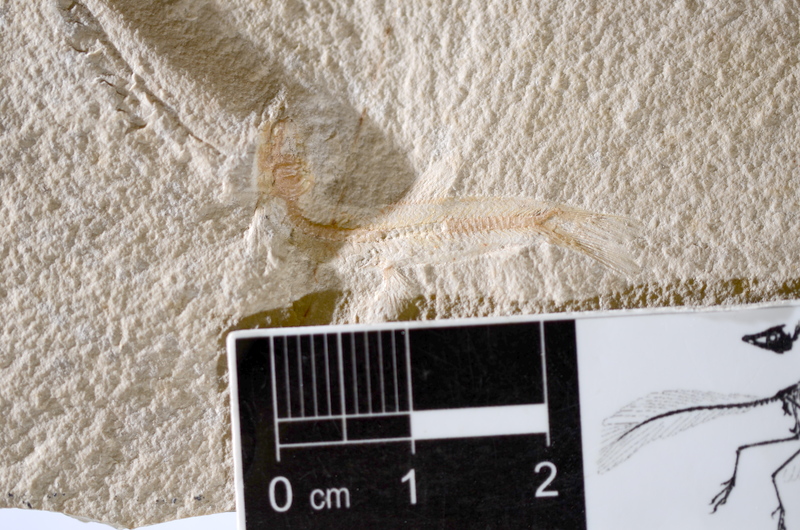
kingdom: Animalia
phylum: Chordata
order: Salmoniformes
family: Orthogonikleithridae
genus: Leptolepides
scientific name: Leptolepides sprattiformis
